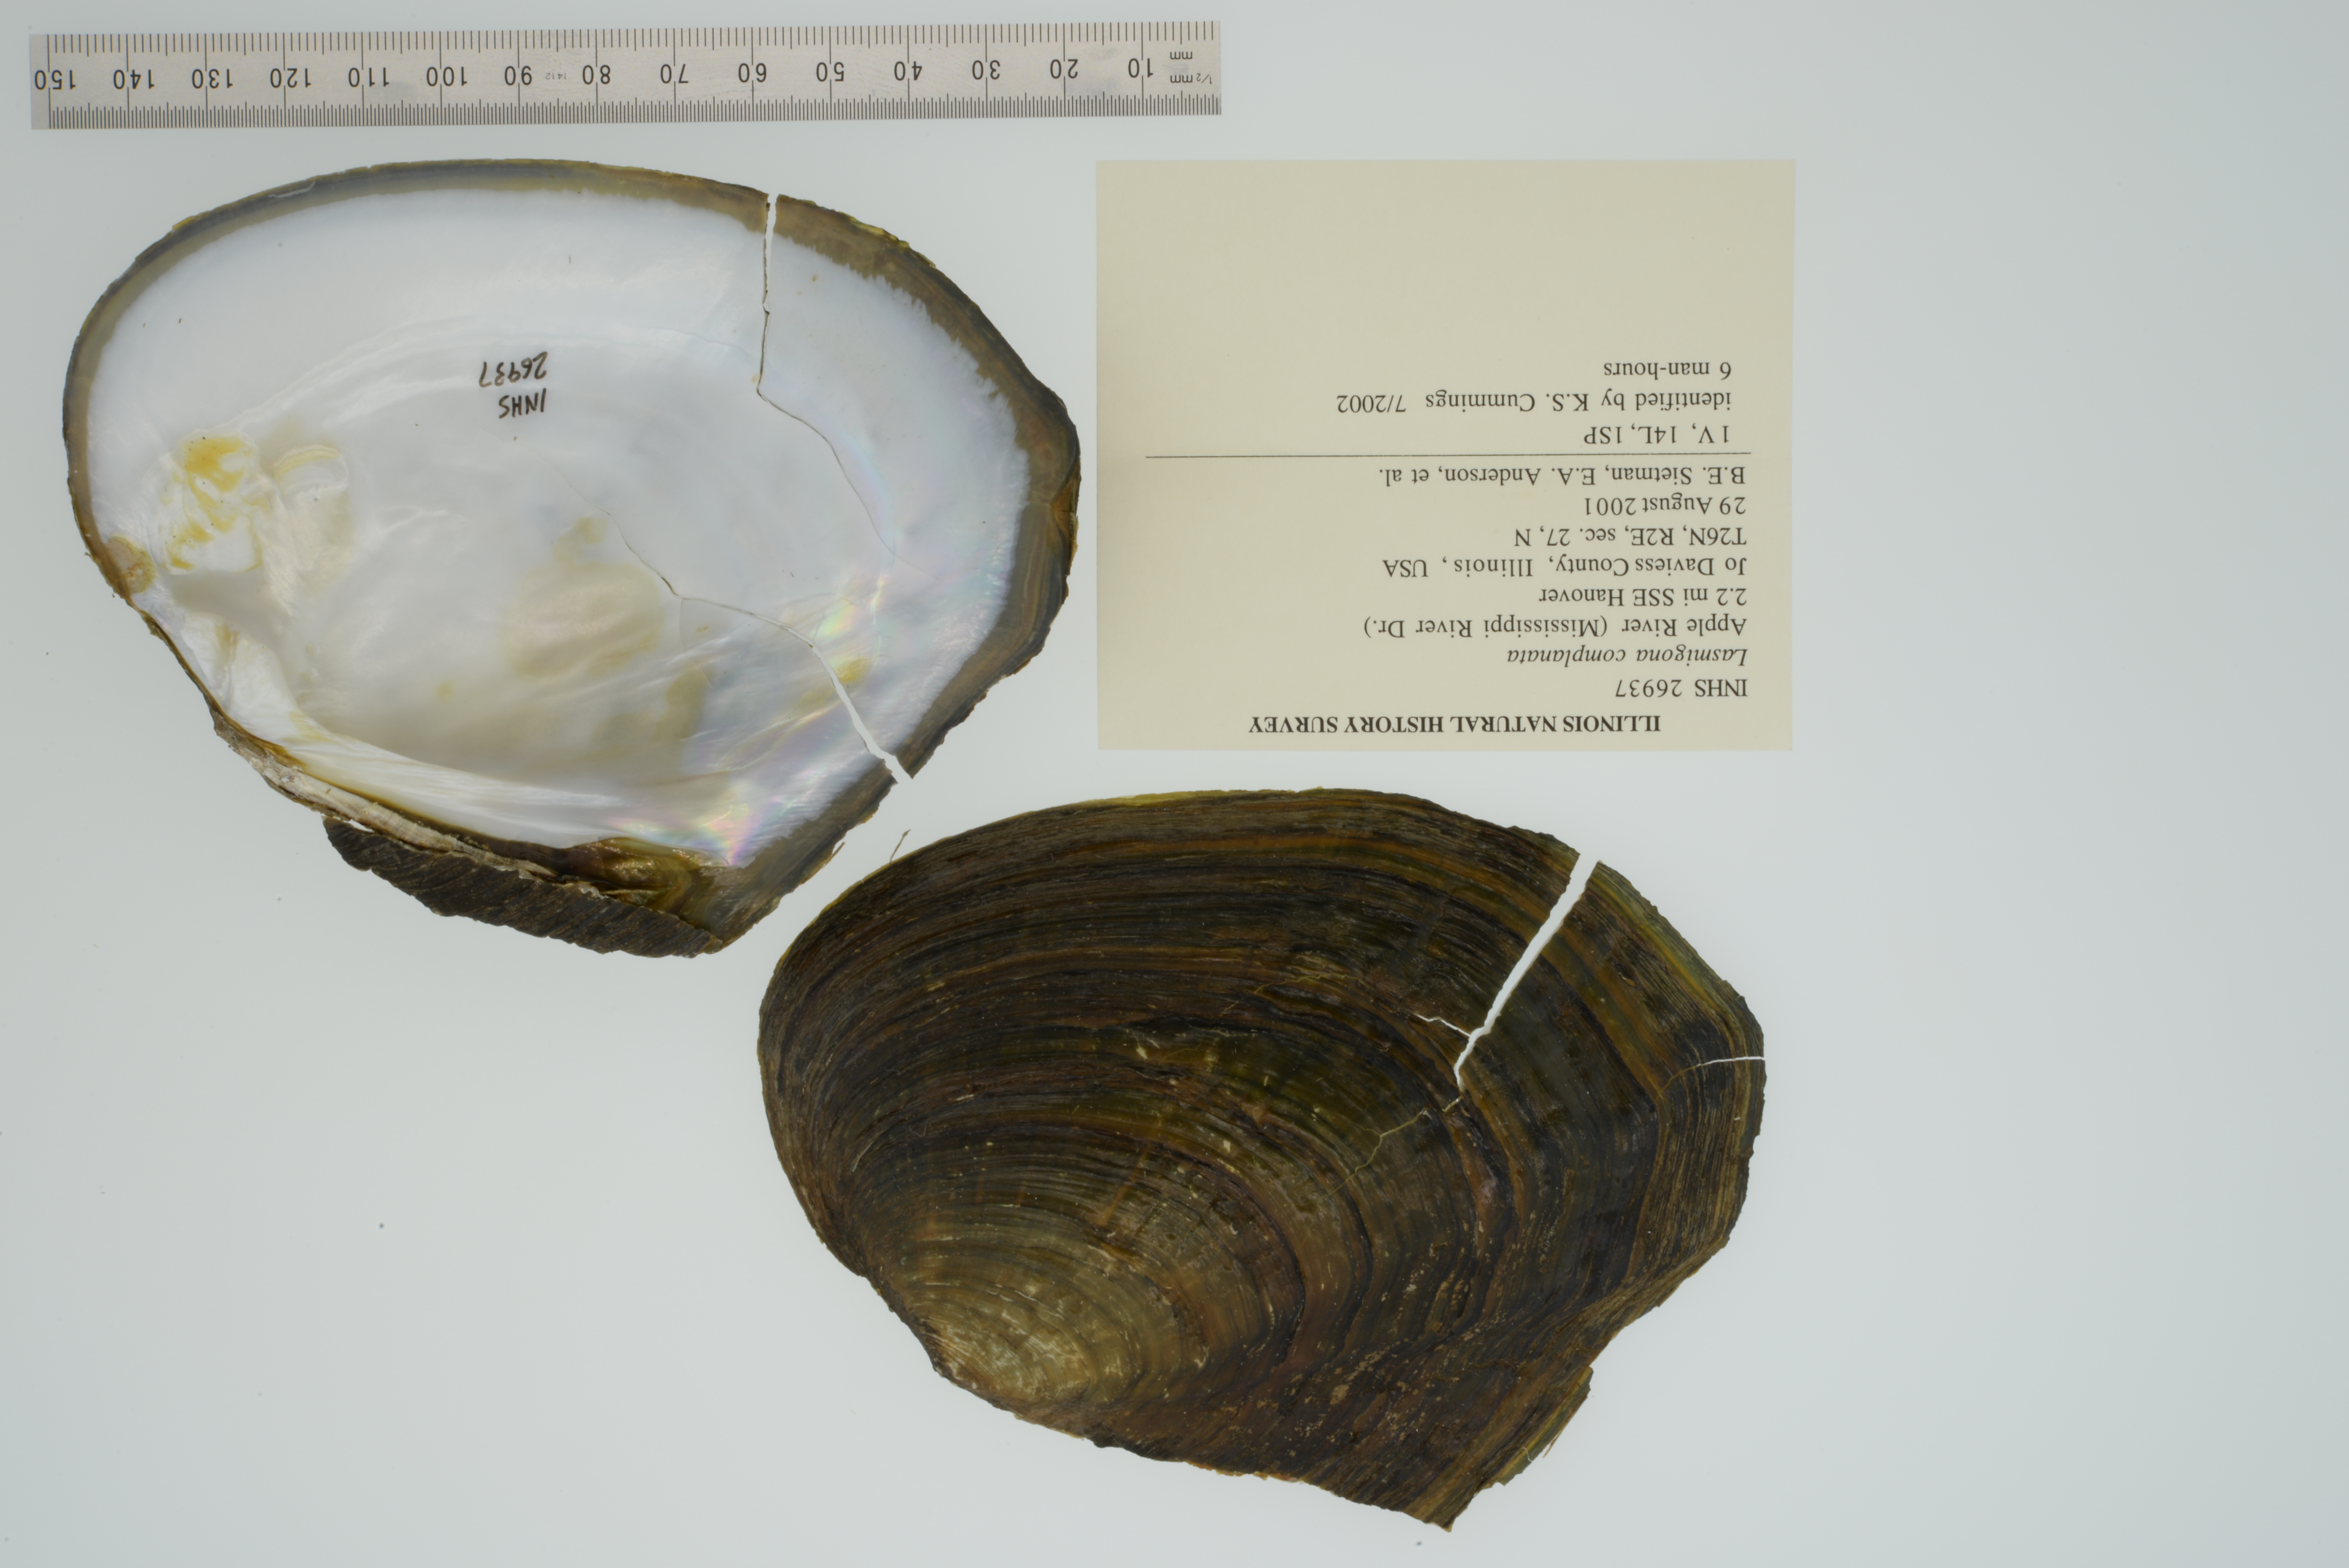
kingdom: Animalia
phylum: Mollusca
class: Bivalvia
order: Unionida
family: Unionidae
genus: Lasmigona
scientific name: Lasmigona complanata
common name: White heelsplitter
